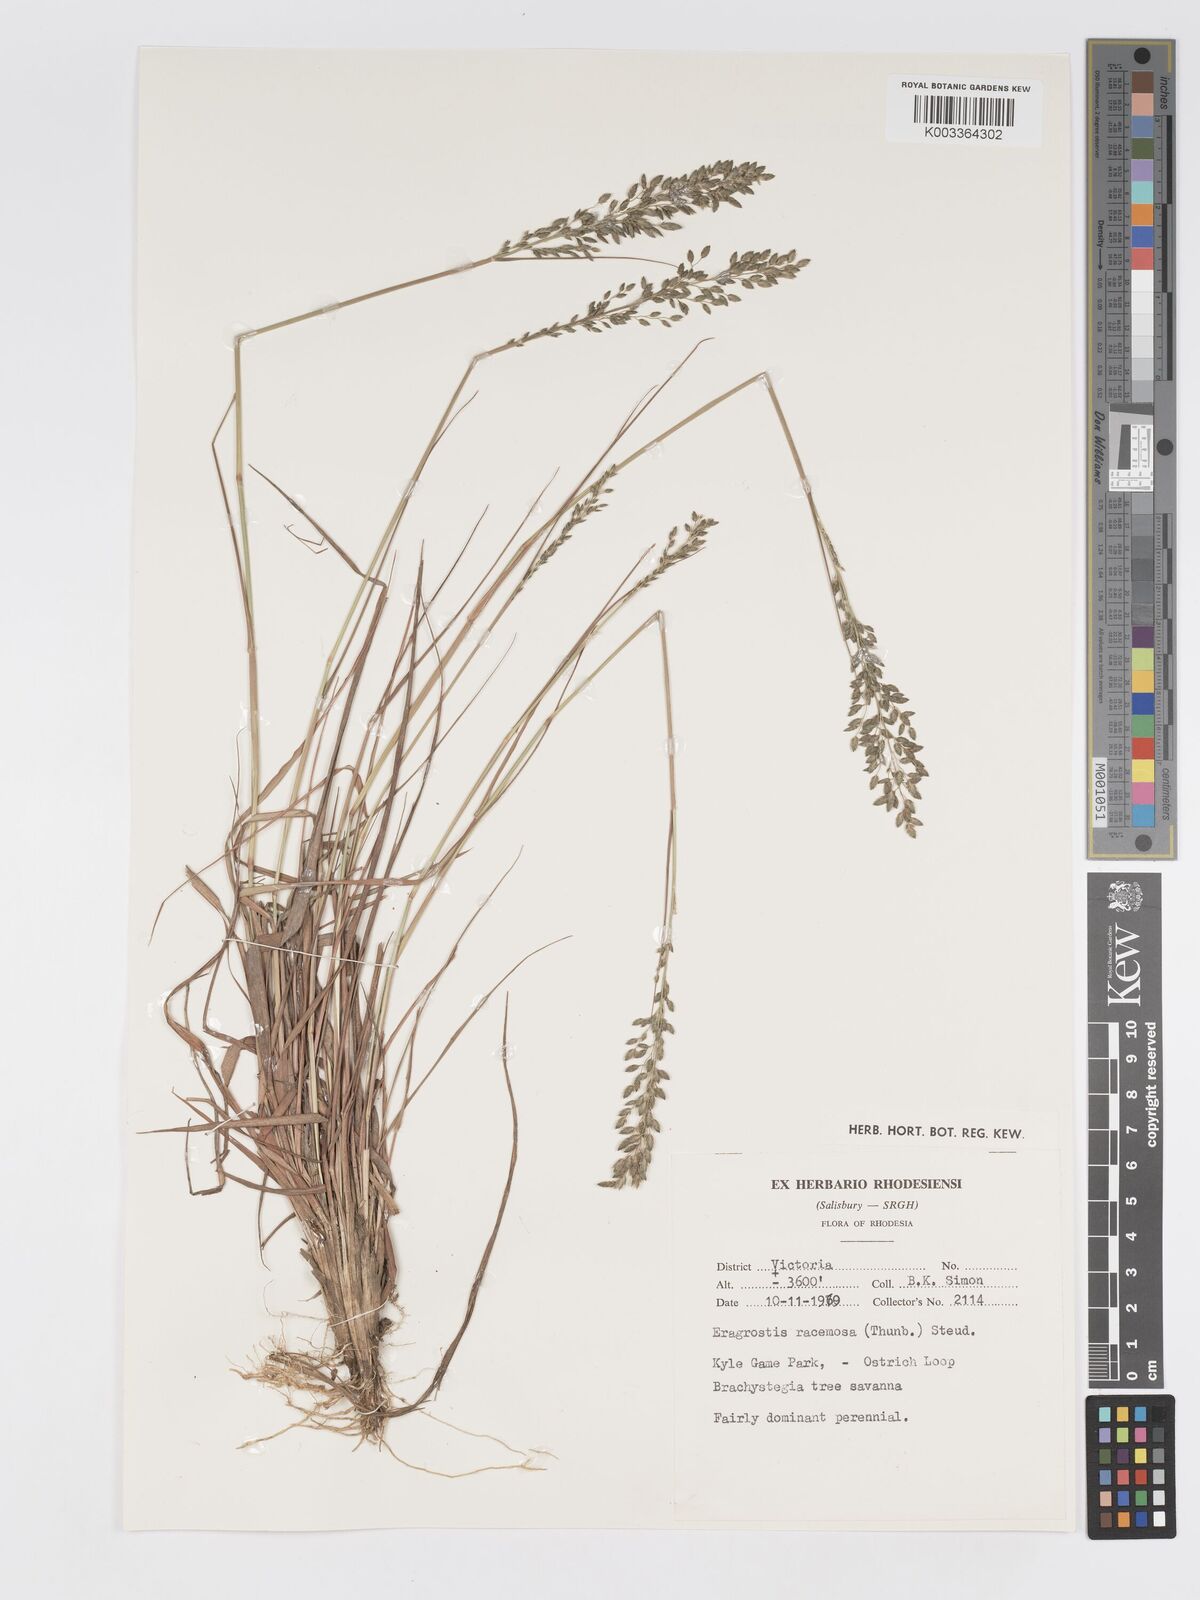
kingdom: Plantae
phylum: Tracheophyta
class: Liliopsida
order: Poales
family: Poaceae
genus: Eragrostis
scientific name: Eragrostis racemosa
